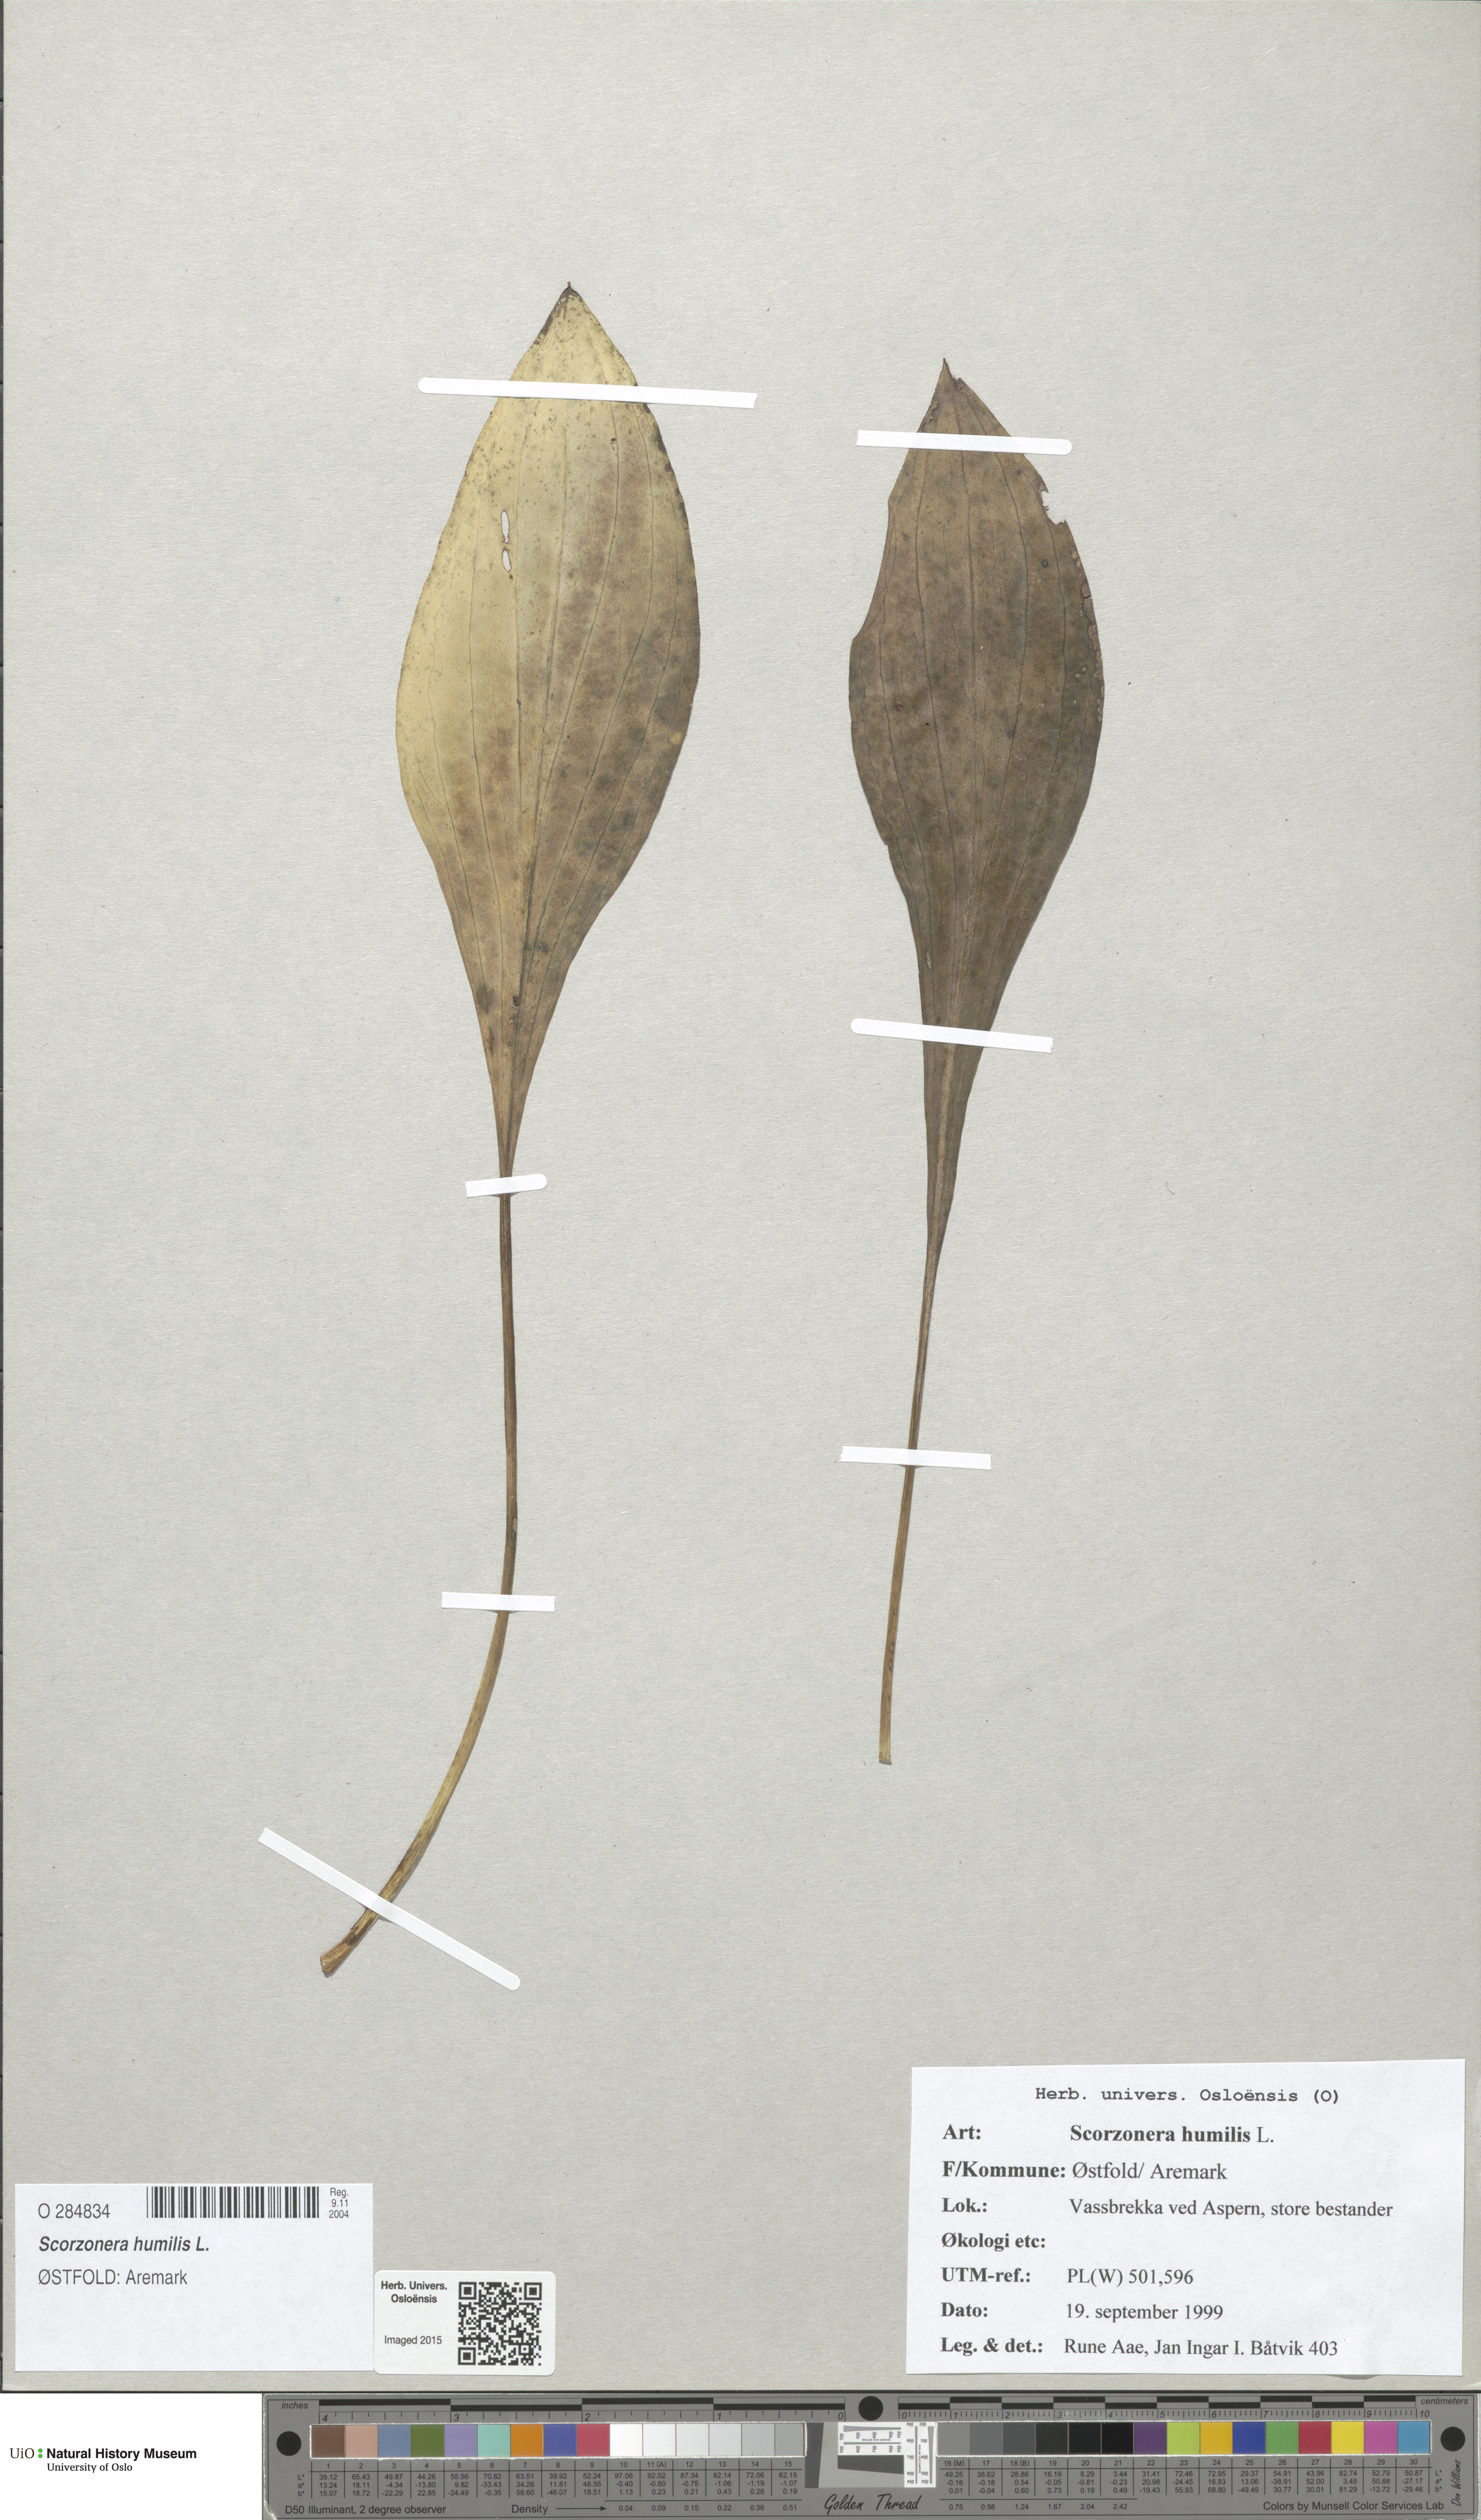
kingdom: Plantae
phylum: Tracheophyta
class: Magnoliopsida
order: Asterales
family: Asteraceae
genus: Scorzonera
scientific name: Scorzonera humilis
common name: Viper's-grass
